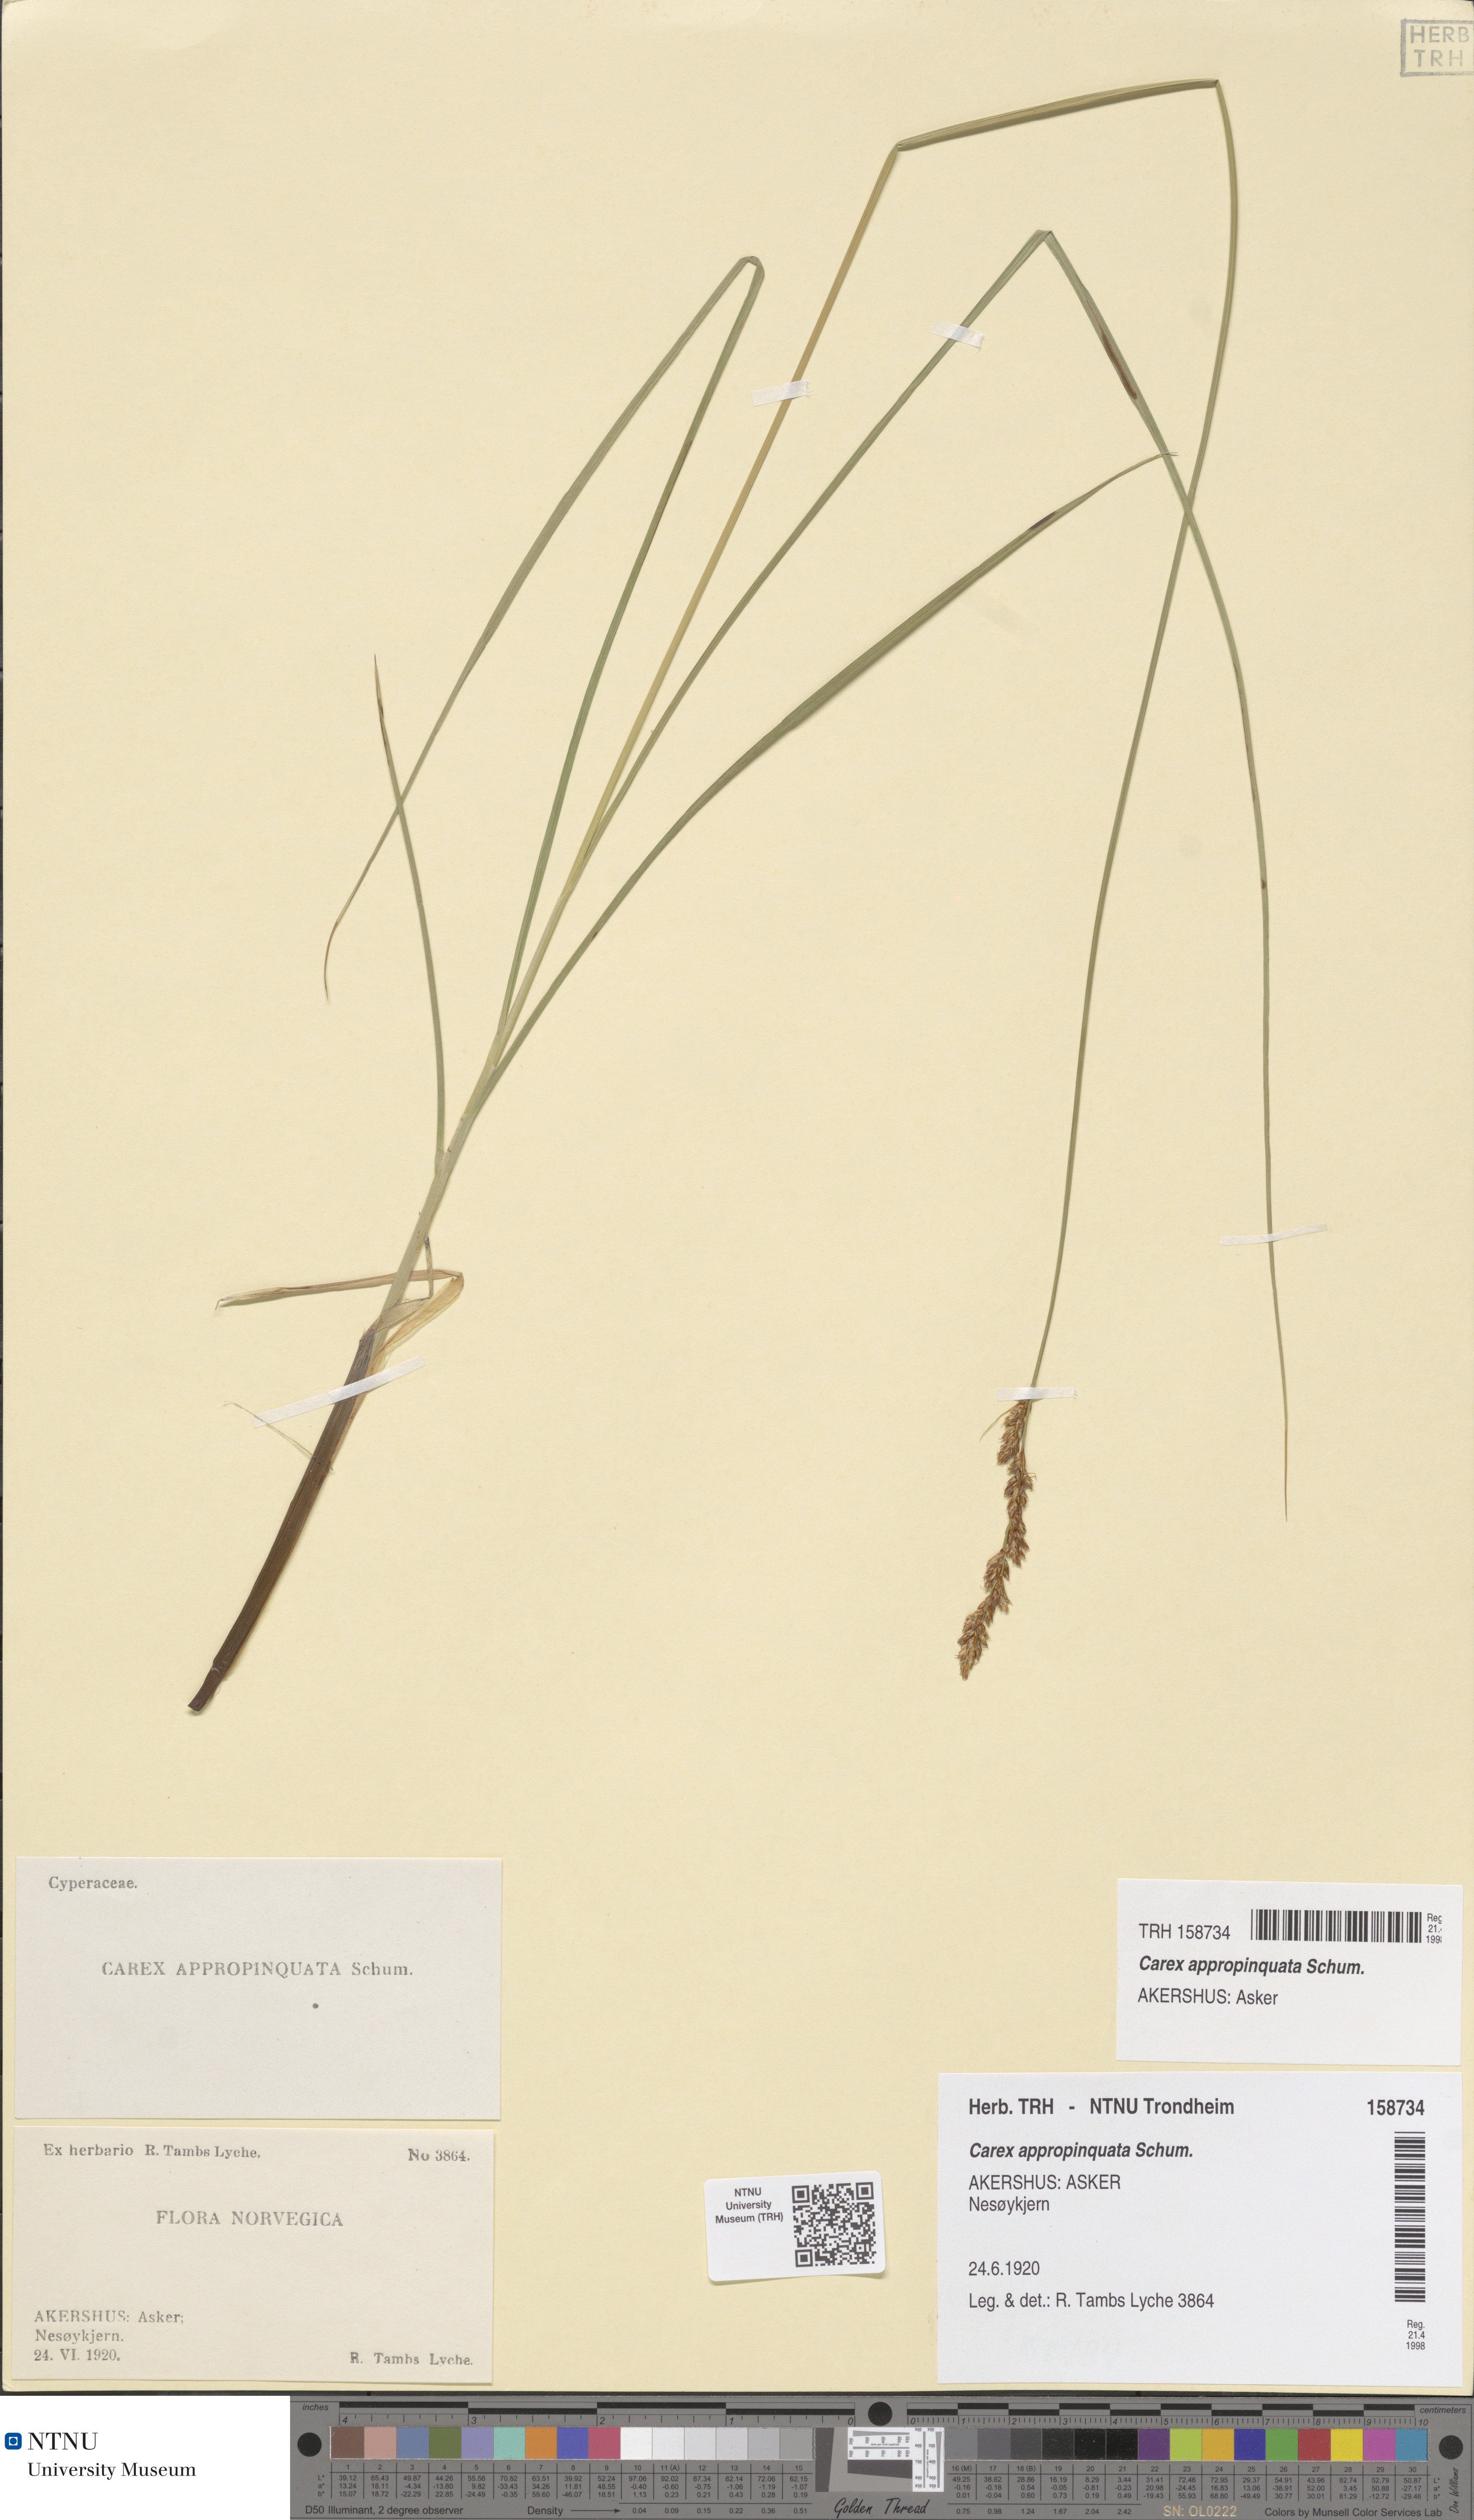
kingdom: Plantae
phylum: Tracheophyta
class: Liliopsida
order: Poales
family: Cyperaceae
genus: Carex
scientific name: Carex appropinquata
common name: Fibrous tussock-sedge
